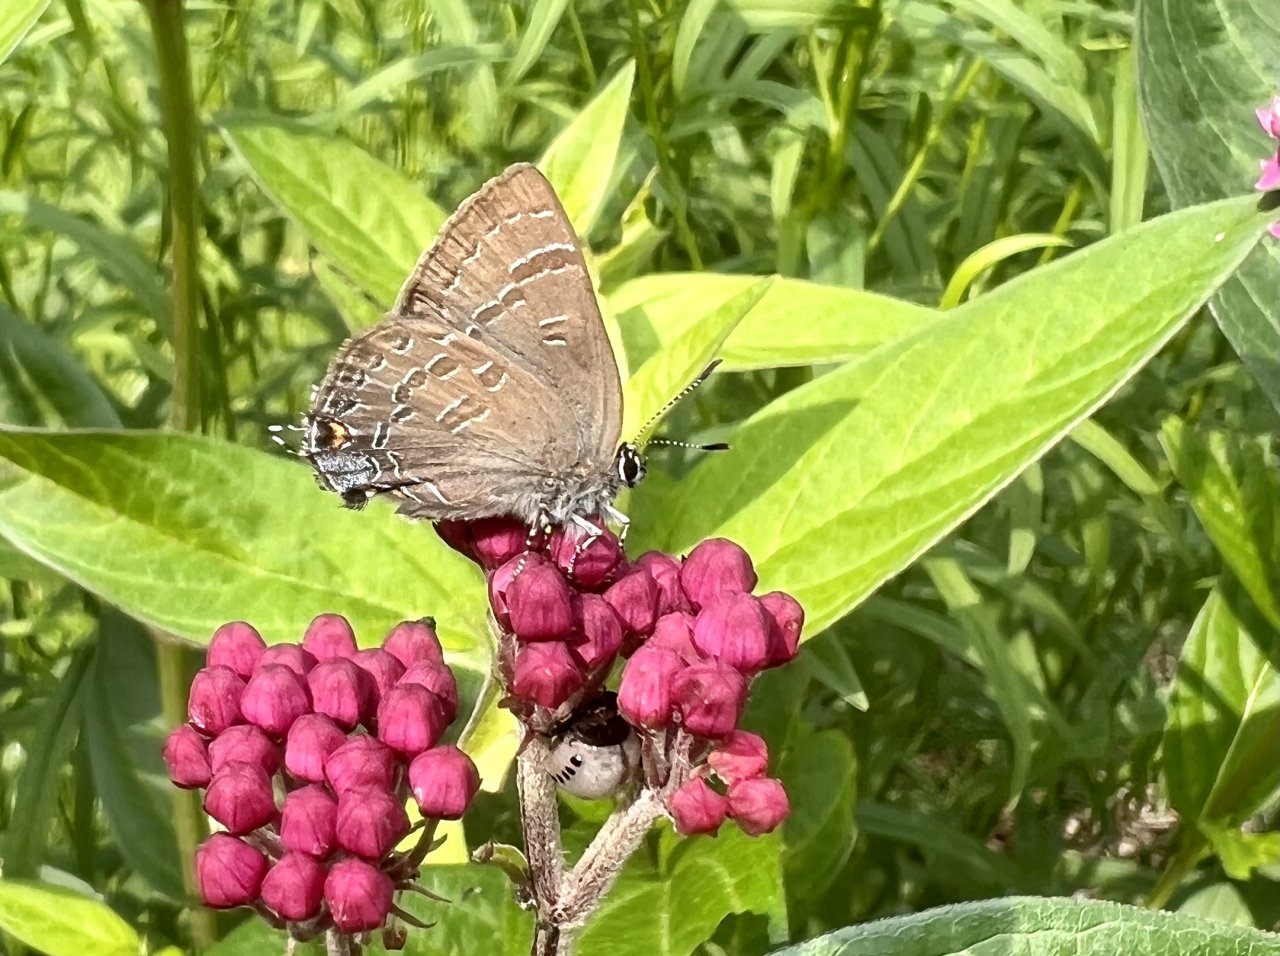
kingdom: Animalia
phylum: Arthropoda
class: Insecta
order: Lepidoptera
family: Lycaenidae
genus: Strymon
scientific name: Strymon caryaevorus
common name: Hickory Hairstreak
